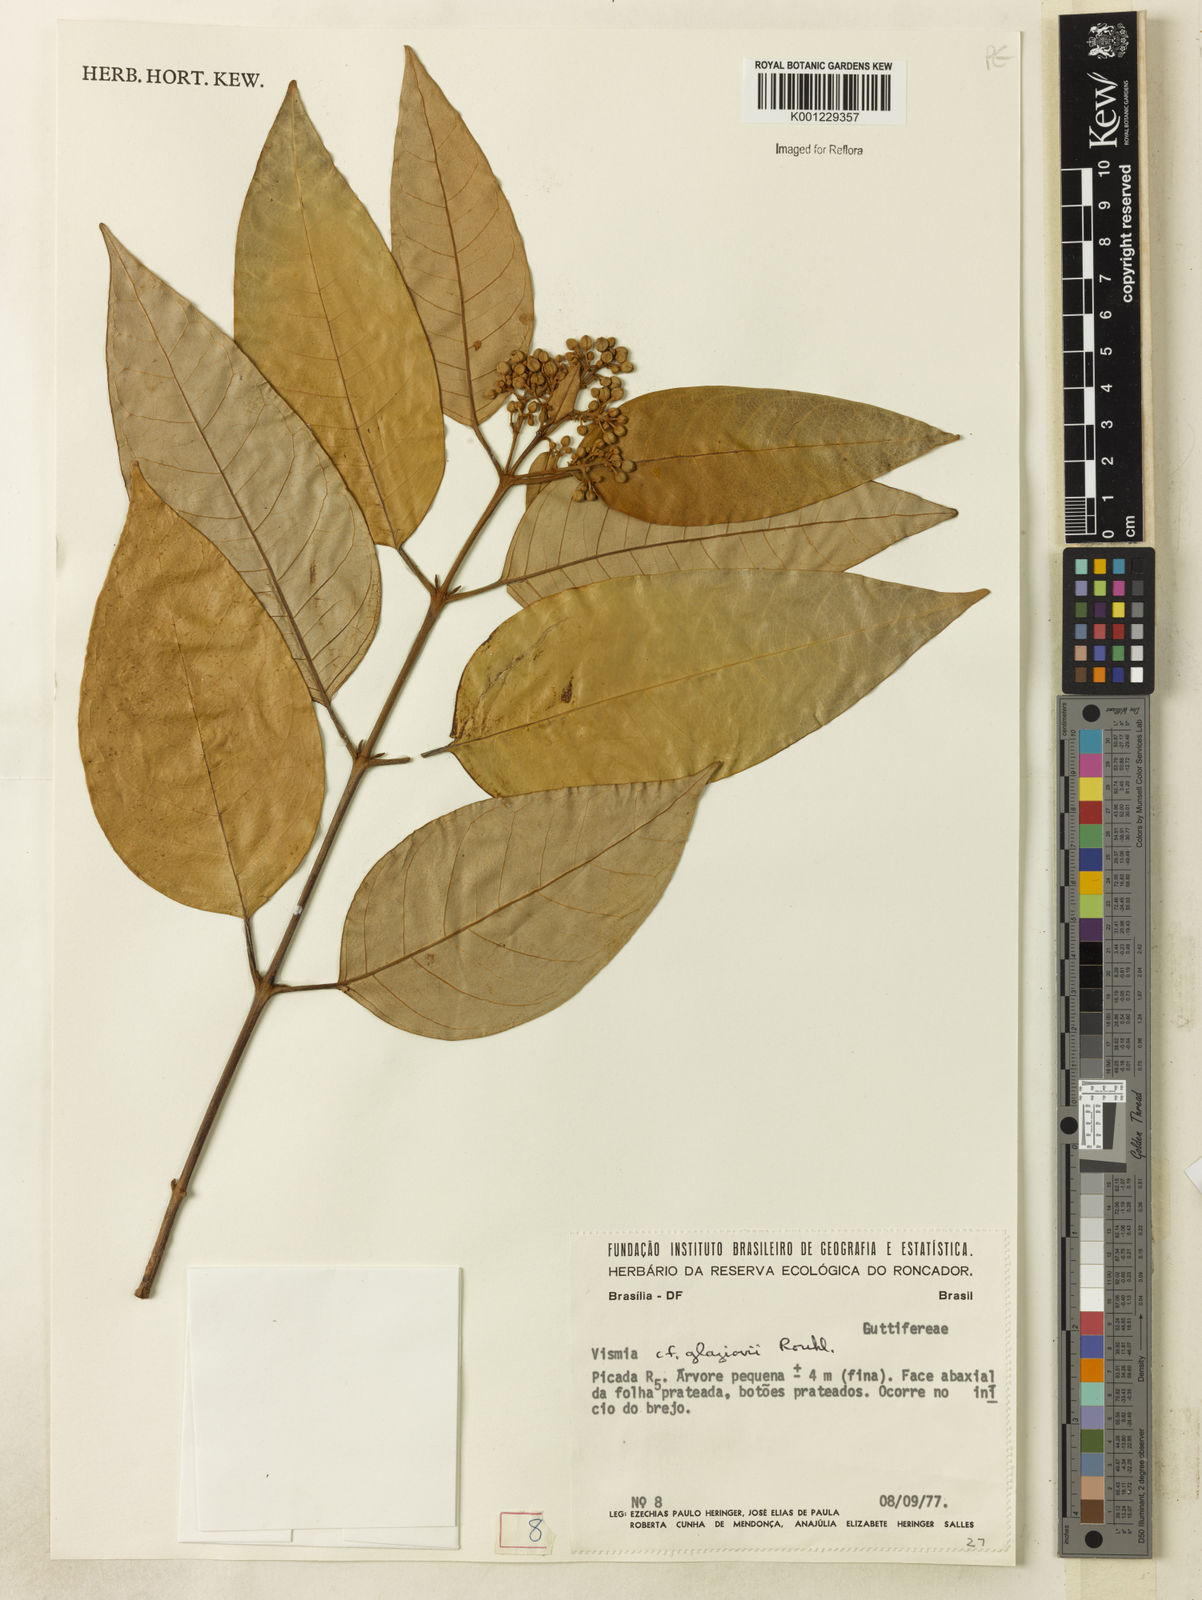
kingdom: Plantae
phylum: Tracheophyta
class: Magnoliopsida
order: Malpighiales
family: Hypericaceae
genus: Vismia
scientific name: Vismia gracilis
